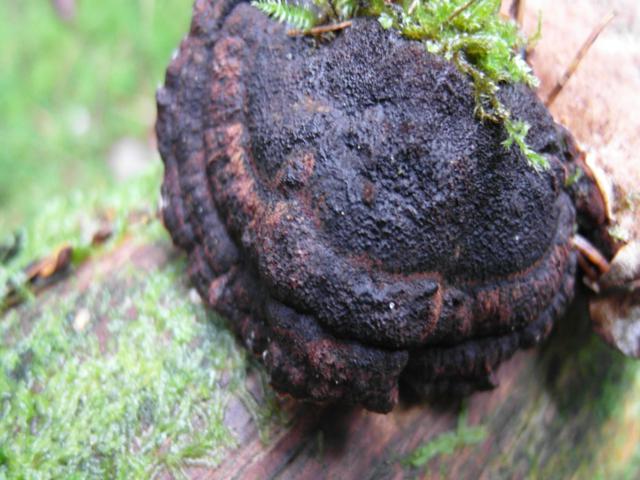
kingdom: Fungi
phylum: Basidiomycota
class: Agaricomycetes
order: Polyporales
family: Ischnodermataceae
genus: Ischnoderma
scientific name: Ischnoderma benzoinum
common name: gran-tjæreporesvamp
